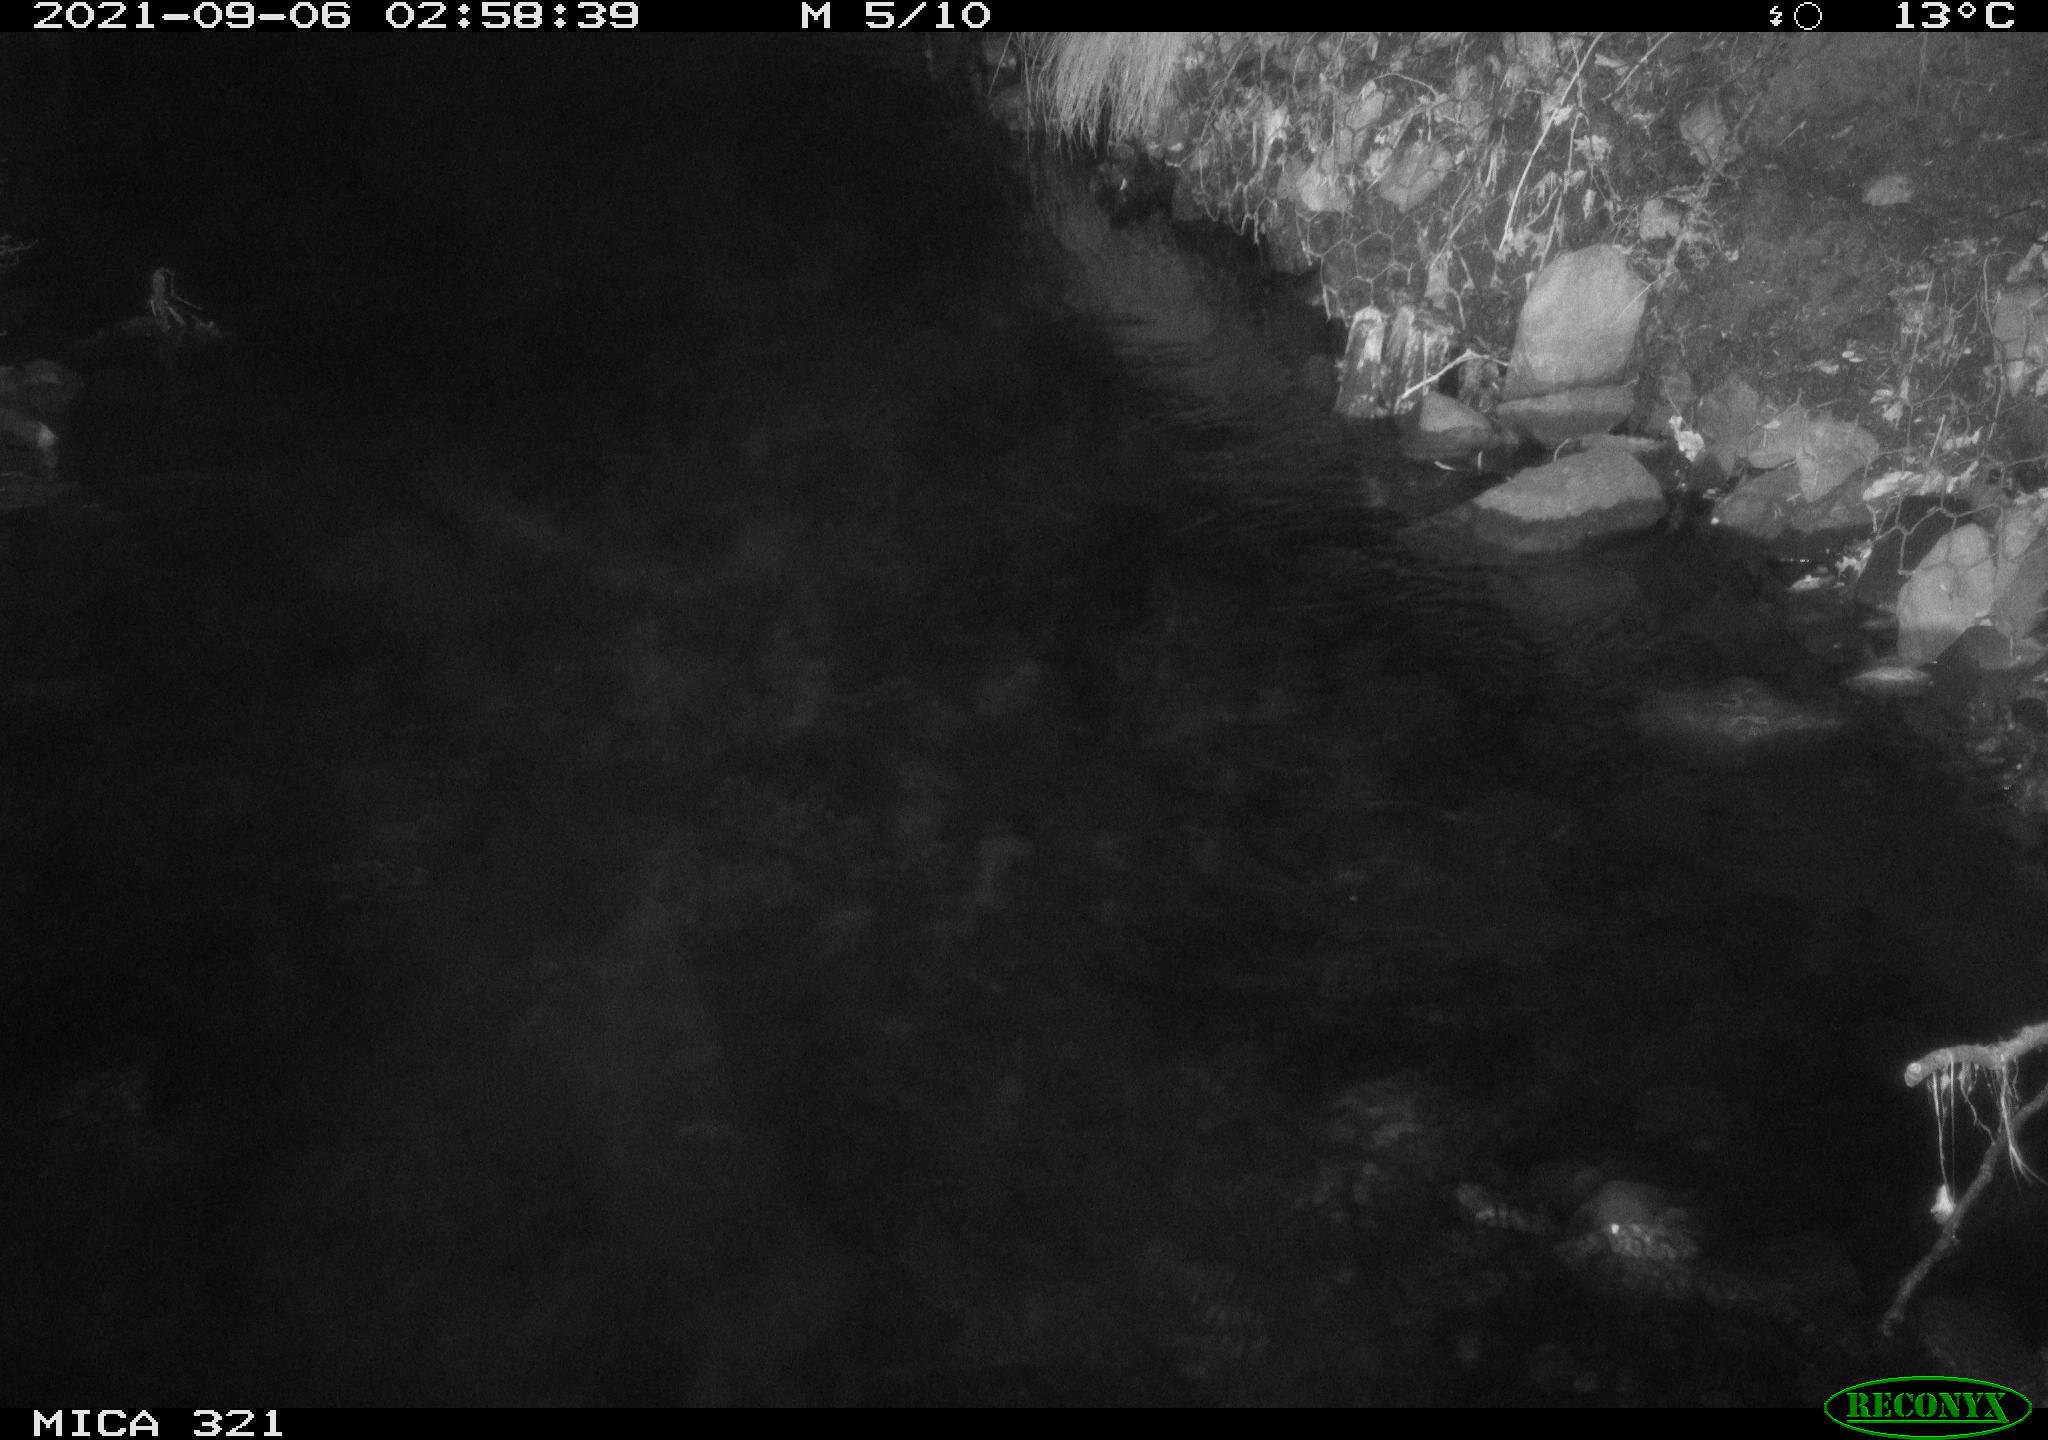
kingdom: Animalia
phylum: Chordata
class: Aves
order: Anseriformes
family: Anatidae
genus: Anas
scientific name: Anas platyrhynchos
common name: Mallard
